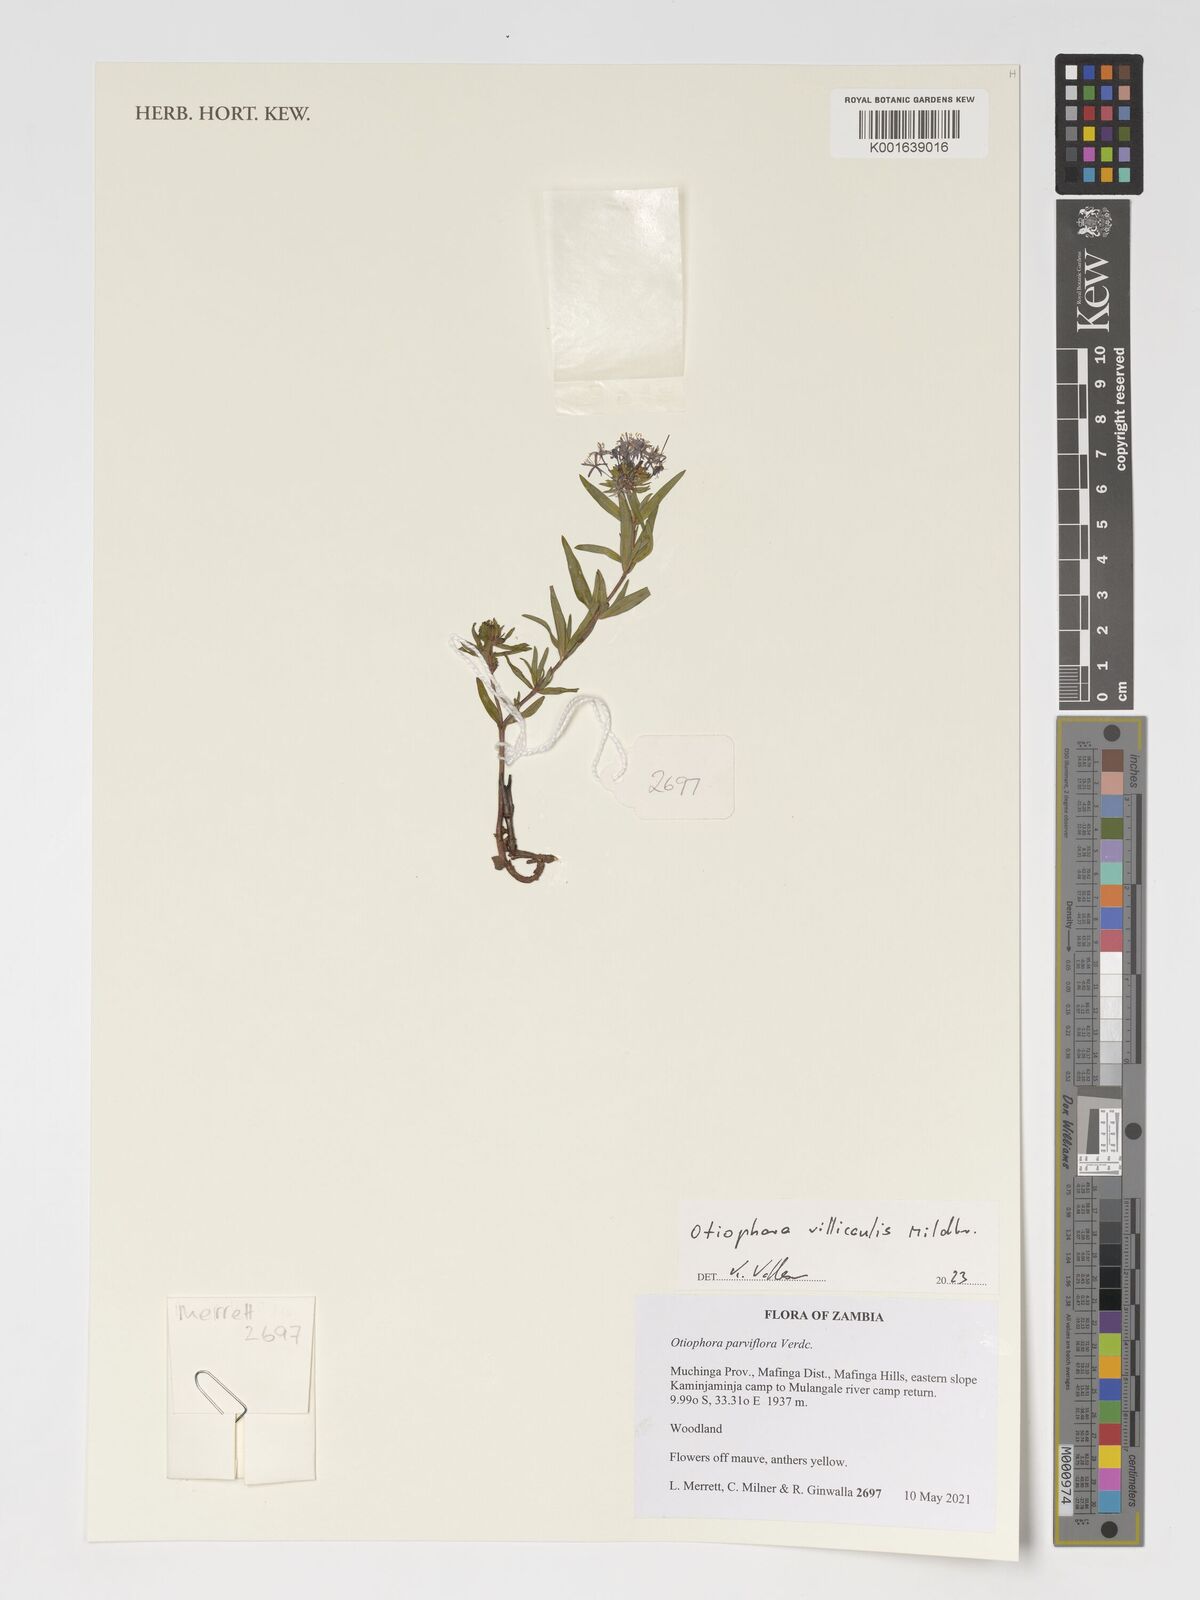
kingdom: Plantae
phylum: Tracheophyta
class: Magnoliopsida
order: Gentianales
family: Rubiaceae
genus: Otiophora
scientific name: Otiophora villicaulis
